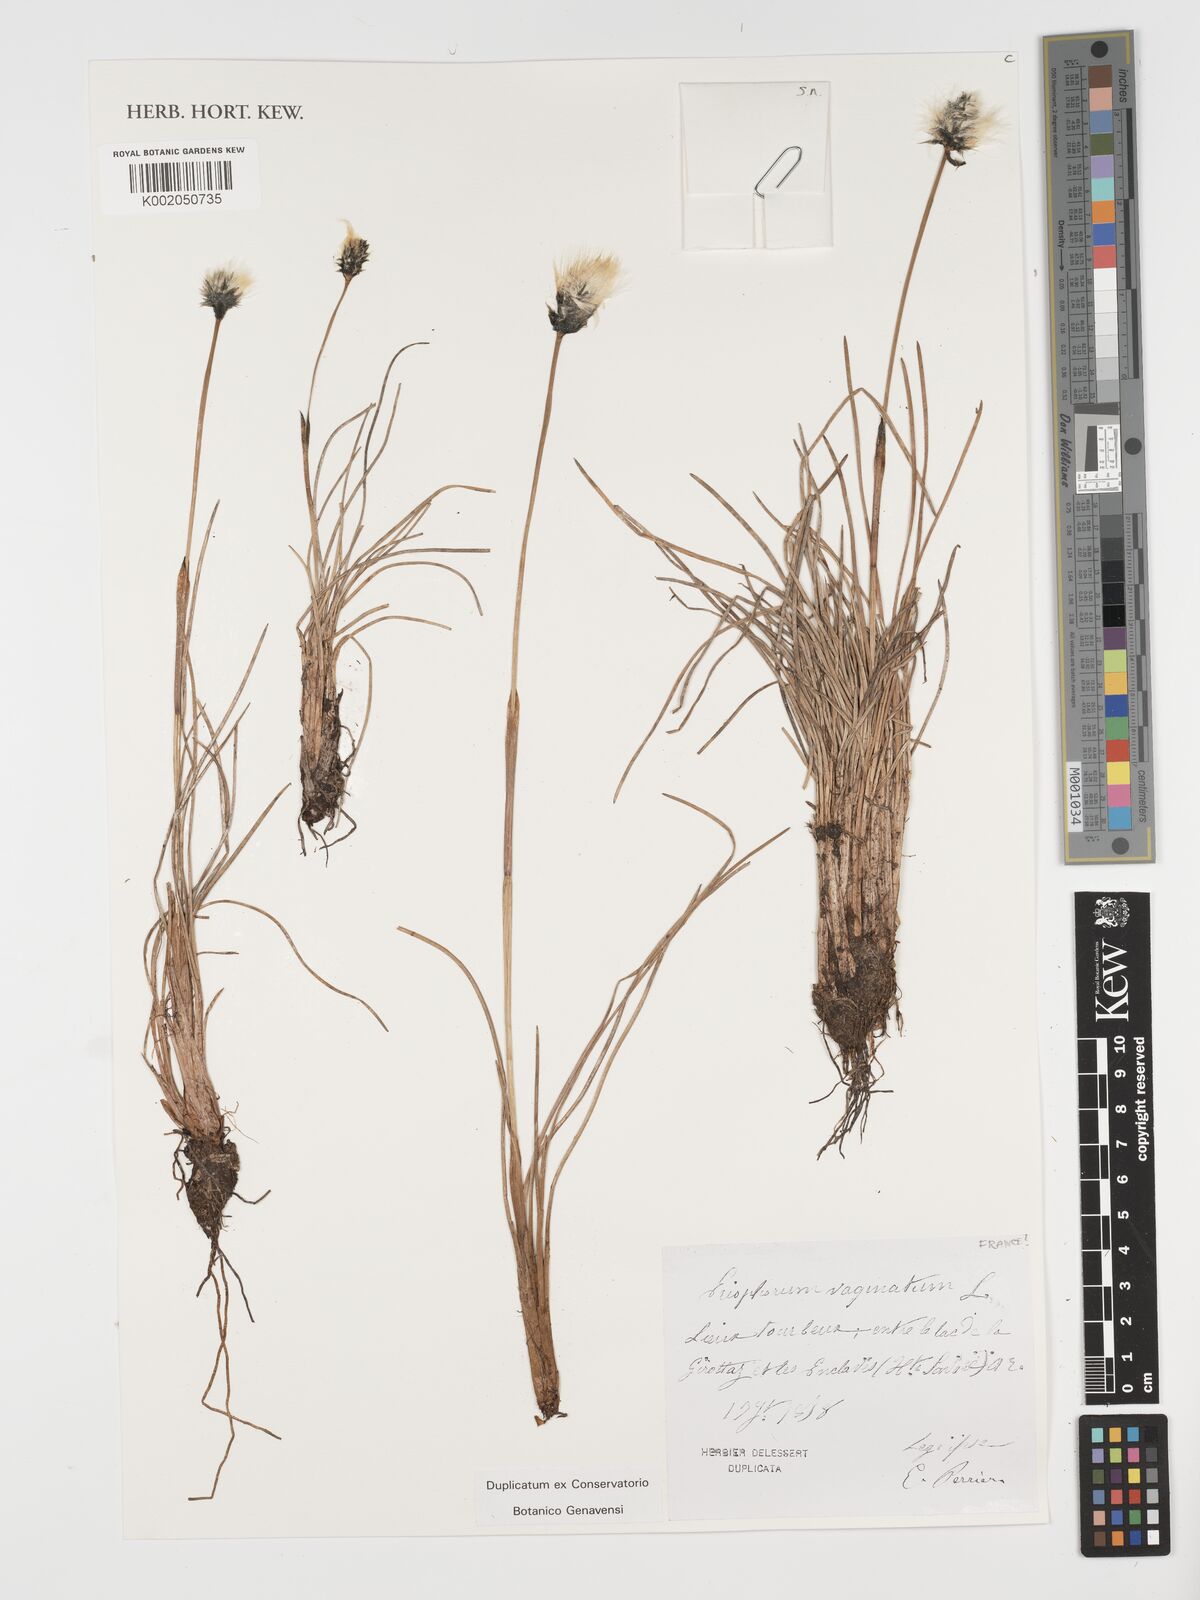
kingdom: Plantae
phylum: Tracheophyta
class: Liliopsida
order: Poales
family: Cyperaceae
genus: Eriophorum
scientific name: Eriophorum vaginatum
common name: Hare's-tail cottongrass
